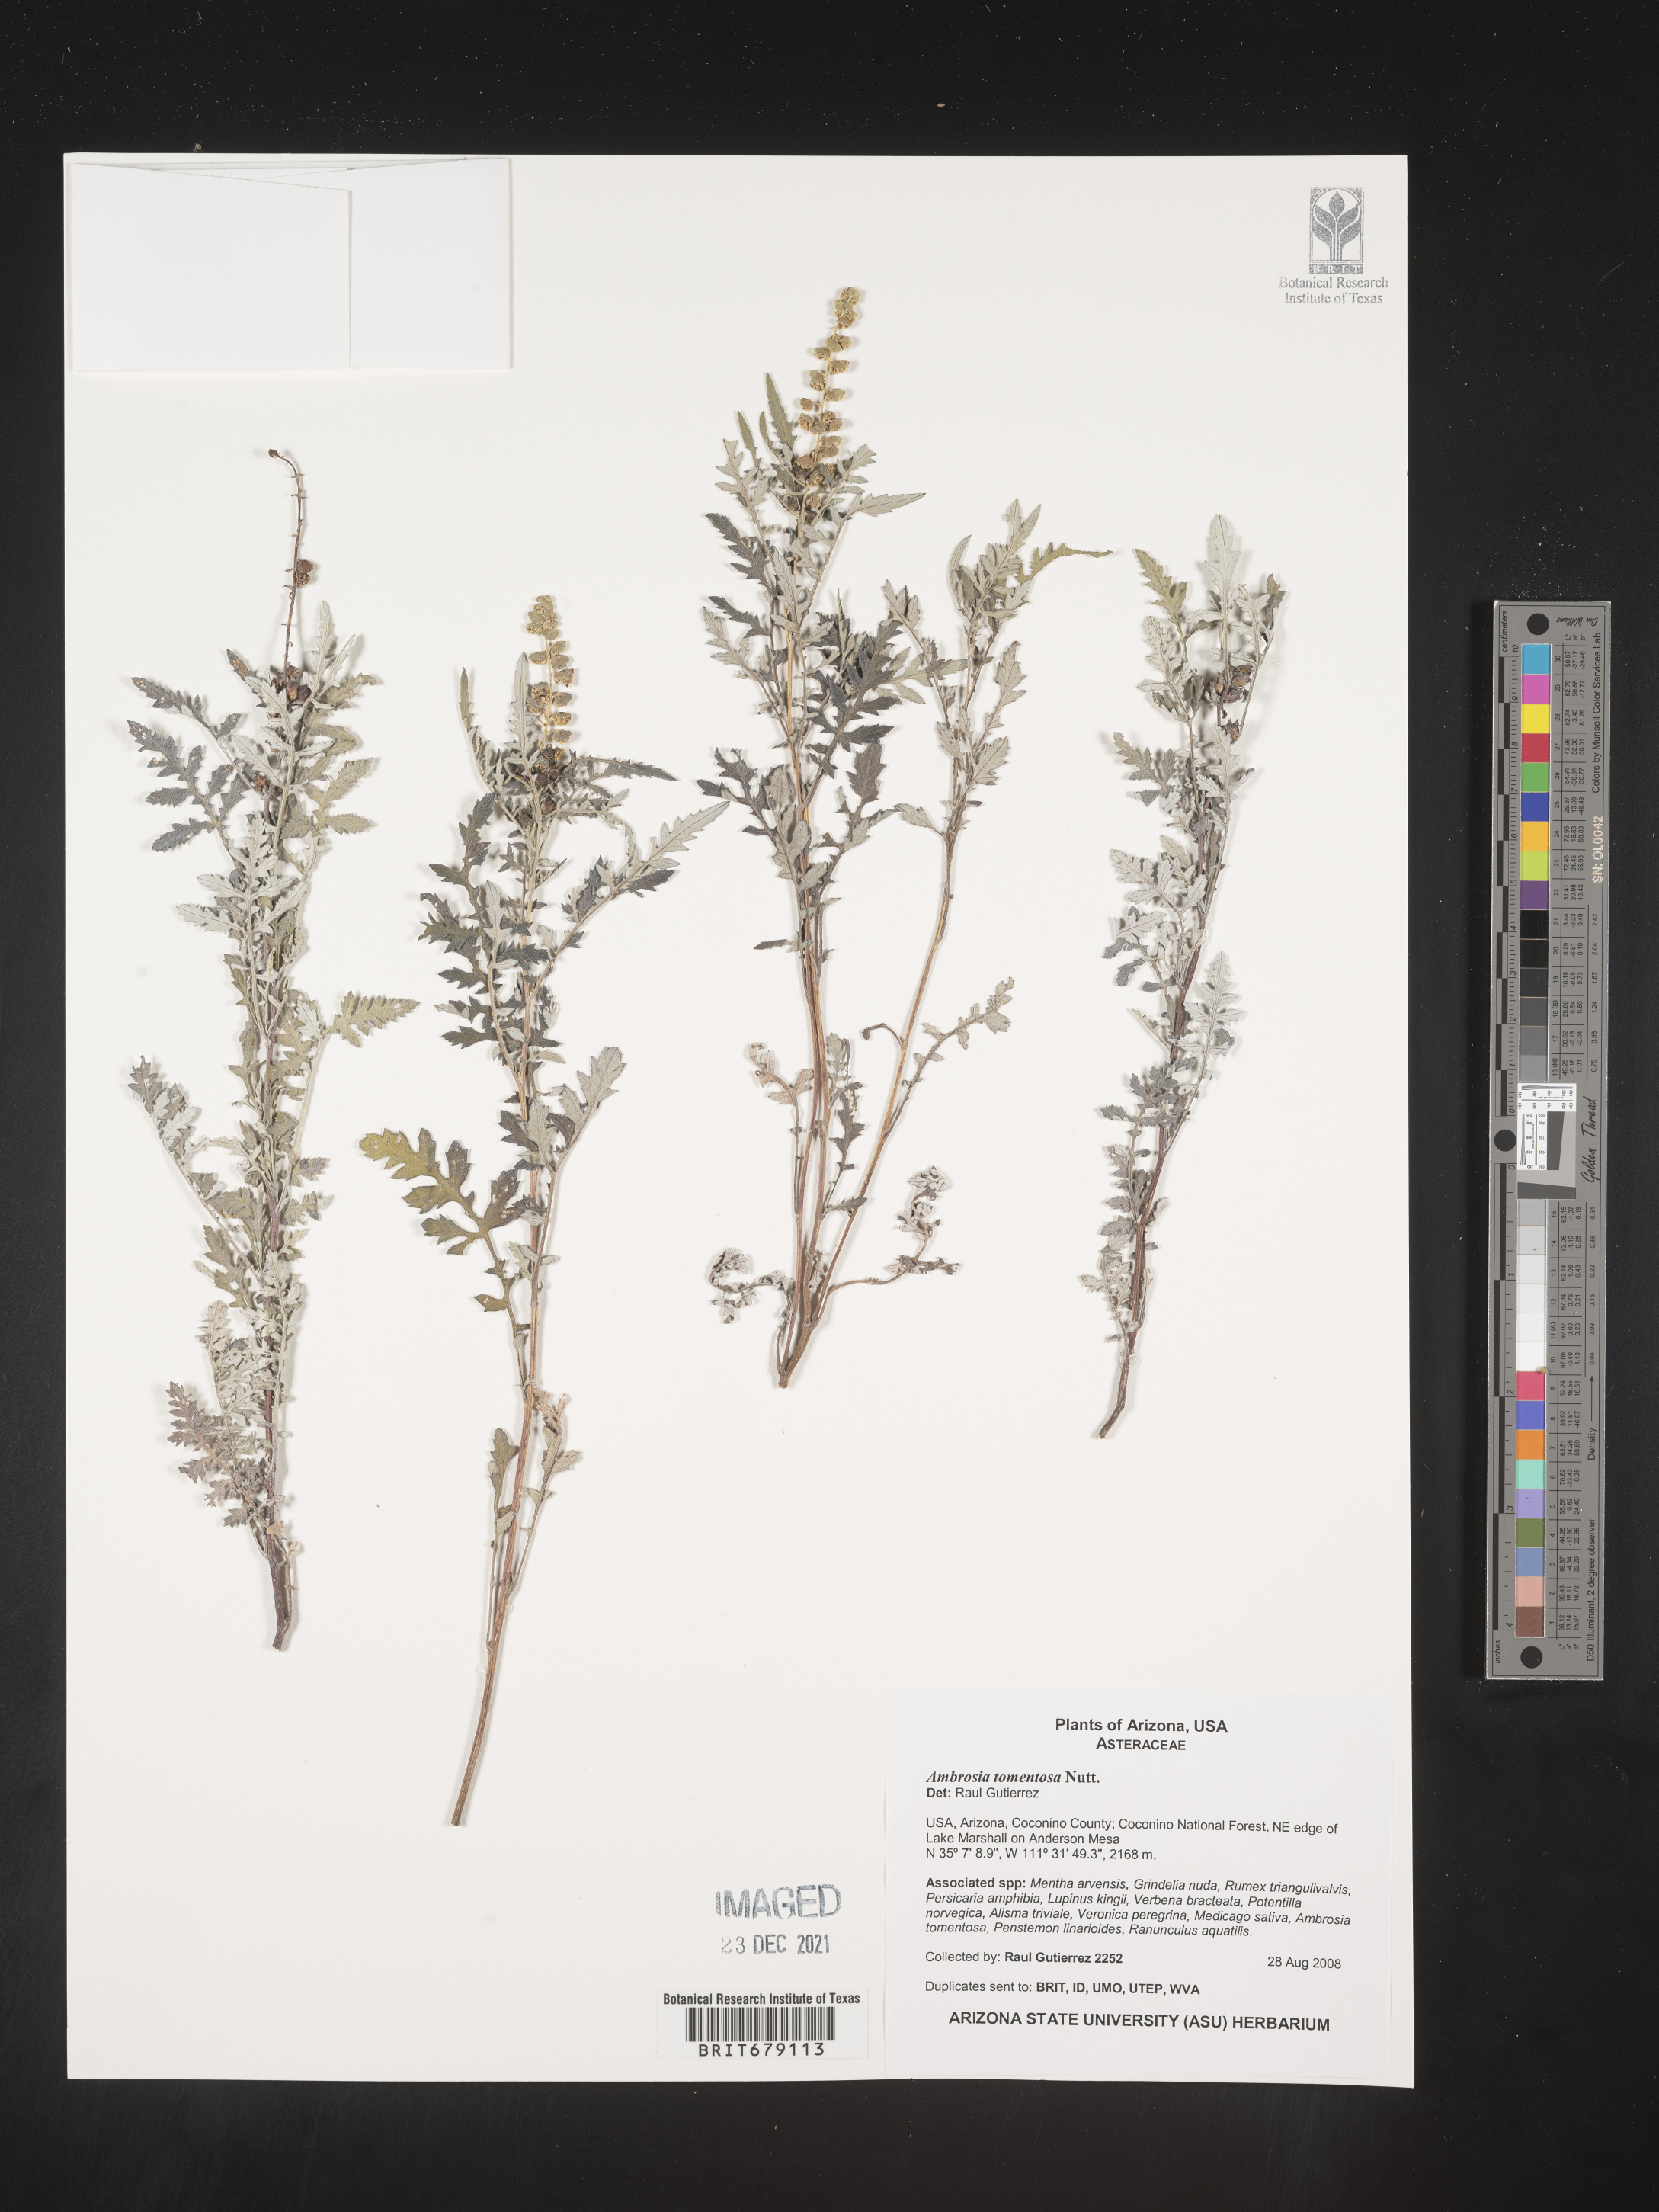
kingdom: Plantae
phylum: Tracheophyta
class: Magnoliopsida
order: Asterales
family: Asteraceae
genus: Ambrosia
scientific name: Ambrosia
